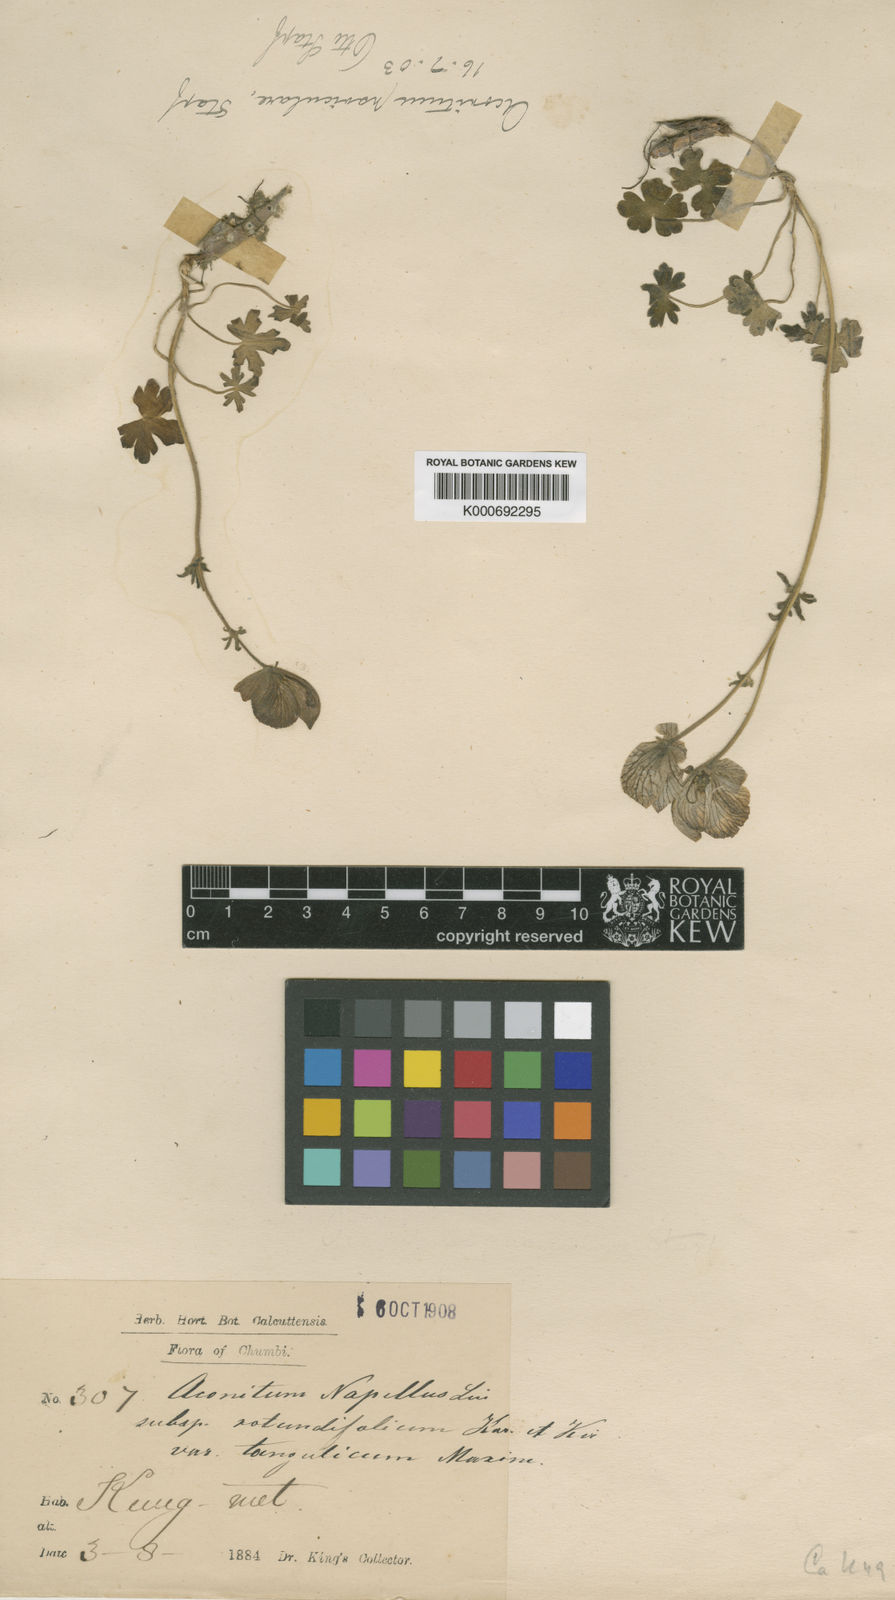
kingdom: Plantae
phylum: Tracheophyta
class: Magnoliopsida
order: Ranunculales
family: Ranunculaceae
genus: Aconitum
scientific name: Aconitum naviculare
